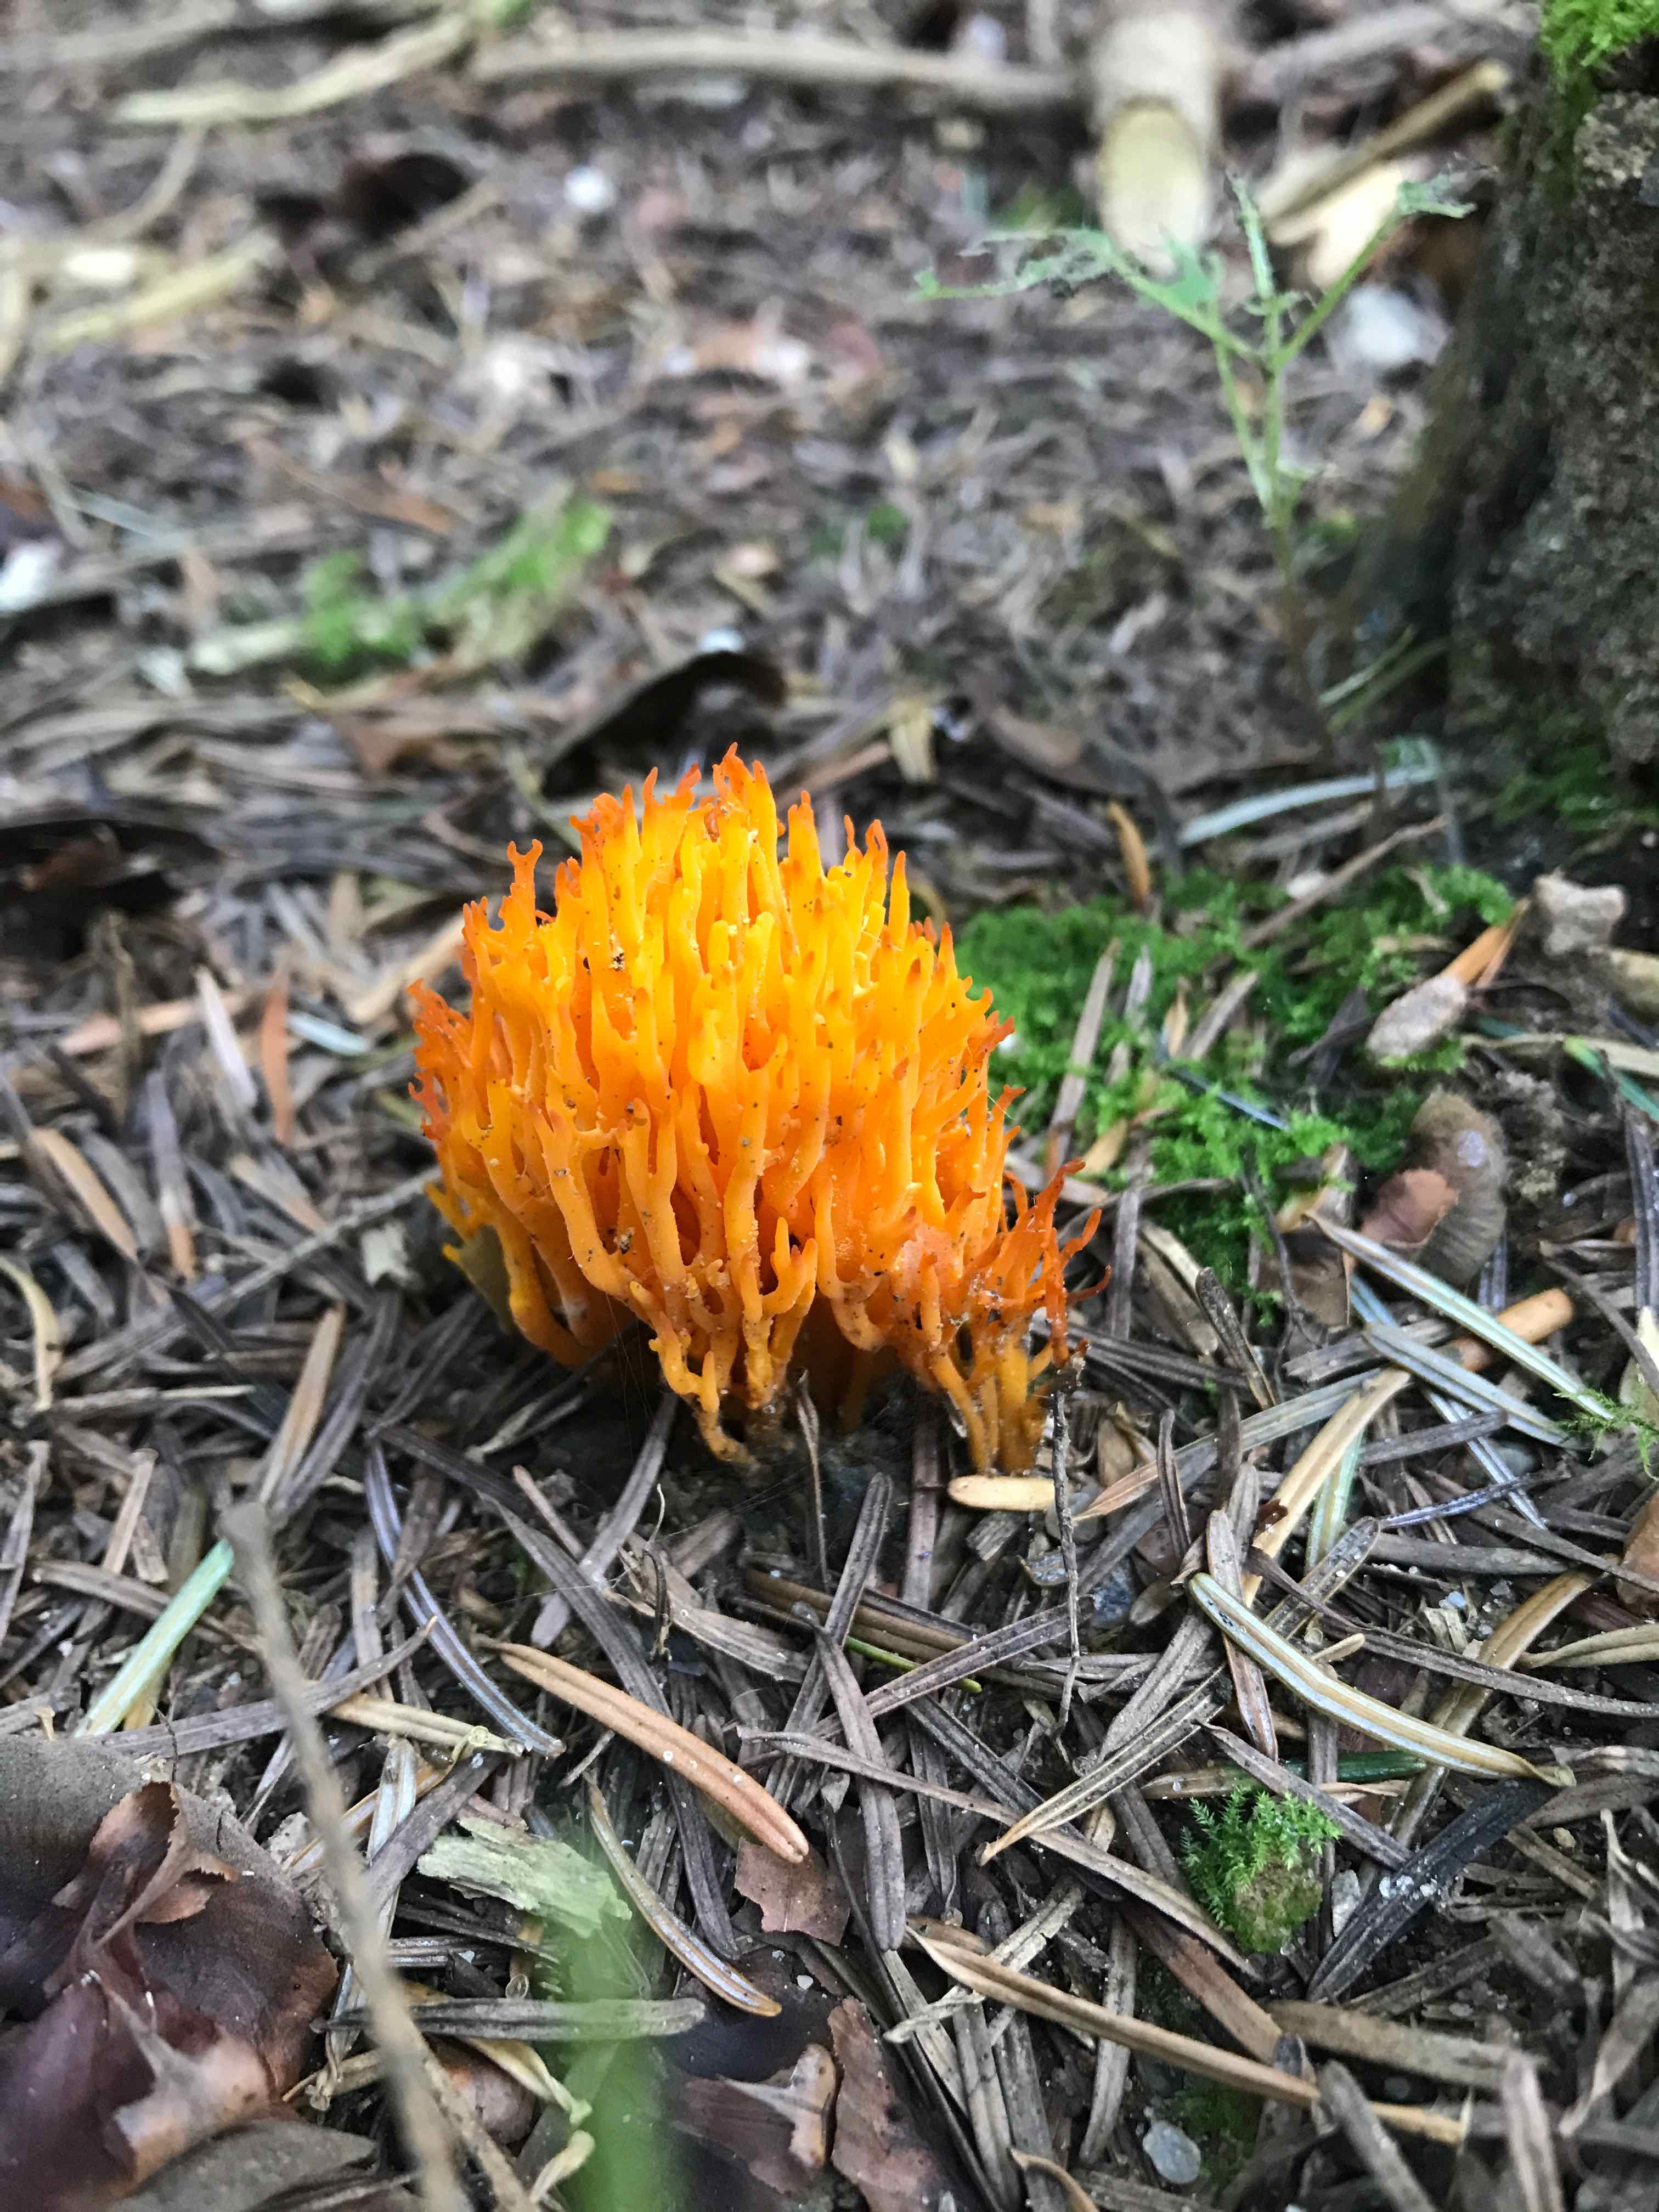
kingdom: Fungi
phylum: Basidiomycota
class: Dacrymycetes
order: Dacrymycetales
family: Dacrymycetaceae
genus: Calocera
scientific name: Calocera viscosa
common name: almindelig guldgaffel
